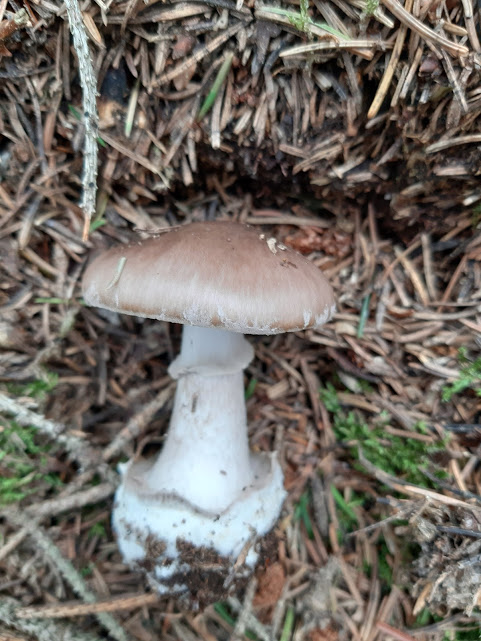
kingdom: Fungi
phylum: Basidiomycota
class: Agaricomycetes
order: Agaricales
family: Amanitaceae
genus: Amanita
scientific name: Amanita porphyria
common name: porfyr-fluesvamp
